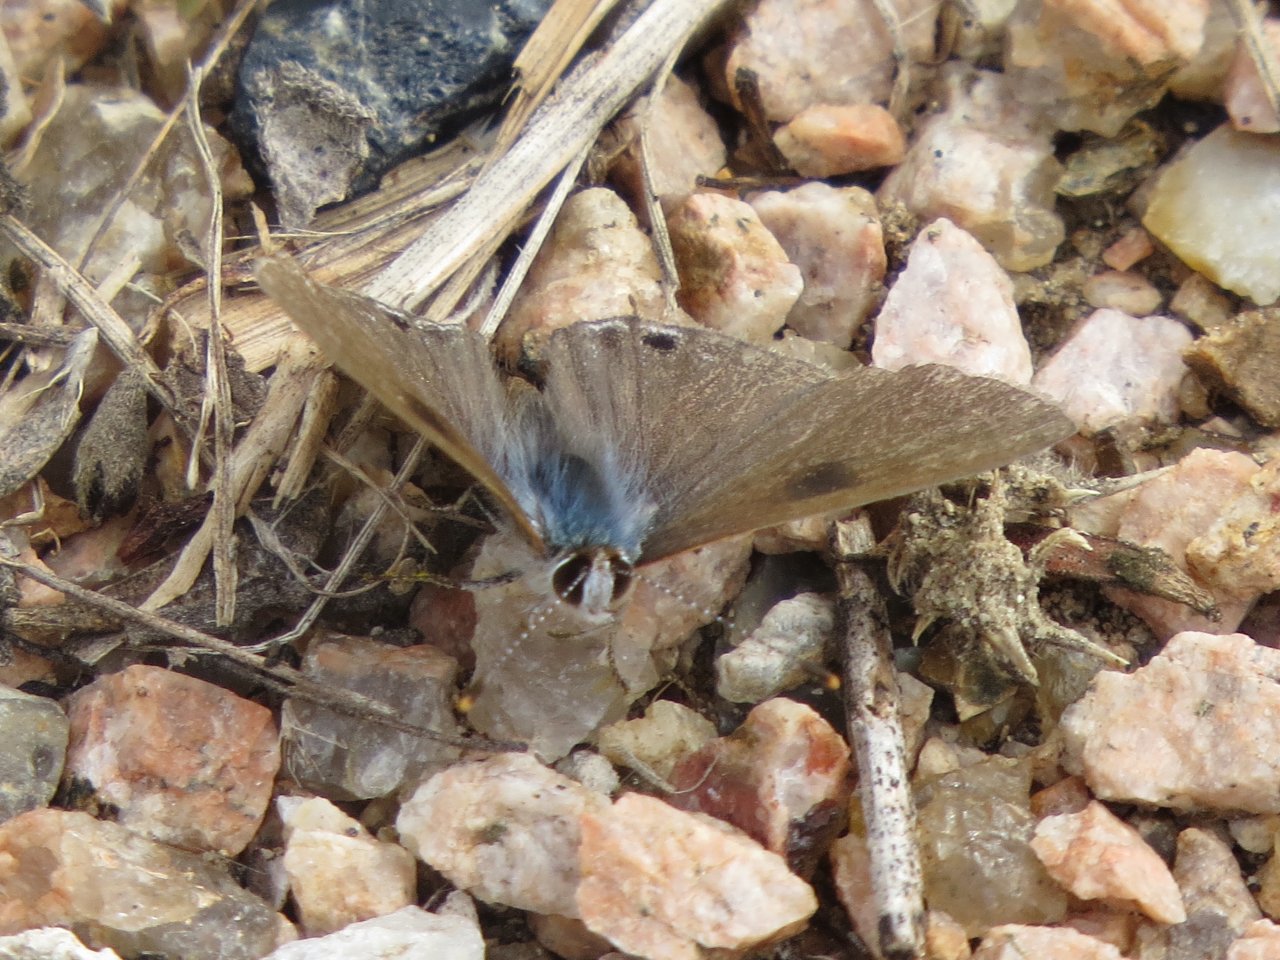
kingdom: Animalia
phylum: Arthropoda
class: Insecta
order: Lepidoptera
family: Lycaenidae
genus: Callicista
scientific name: Callicista columella
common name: Mallow Scrub-Hairstreak
